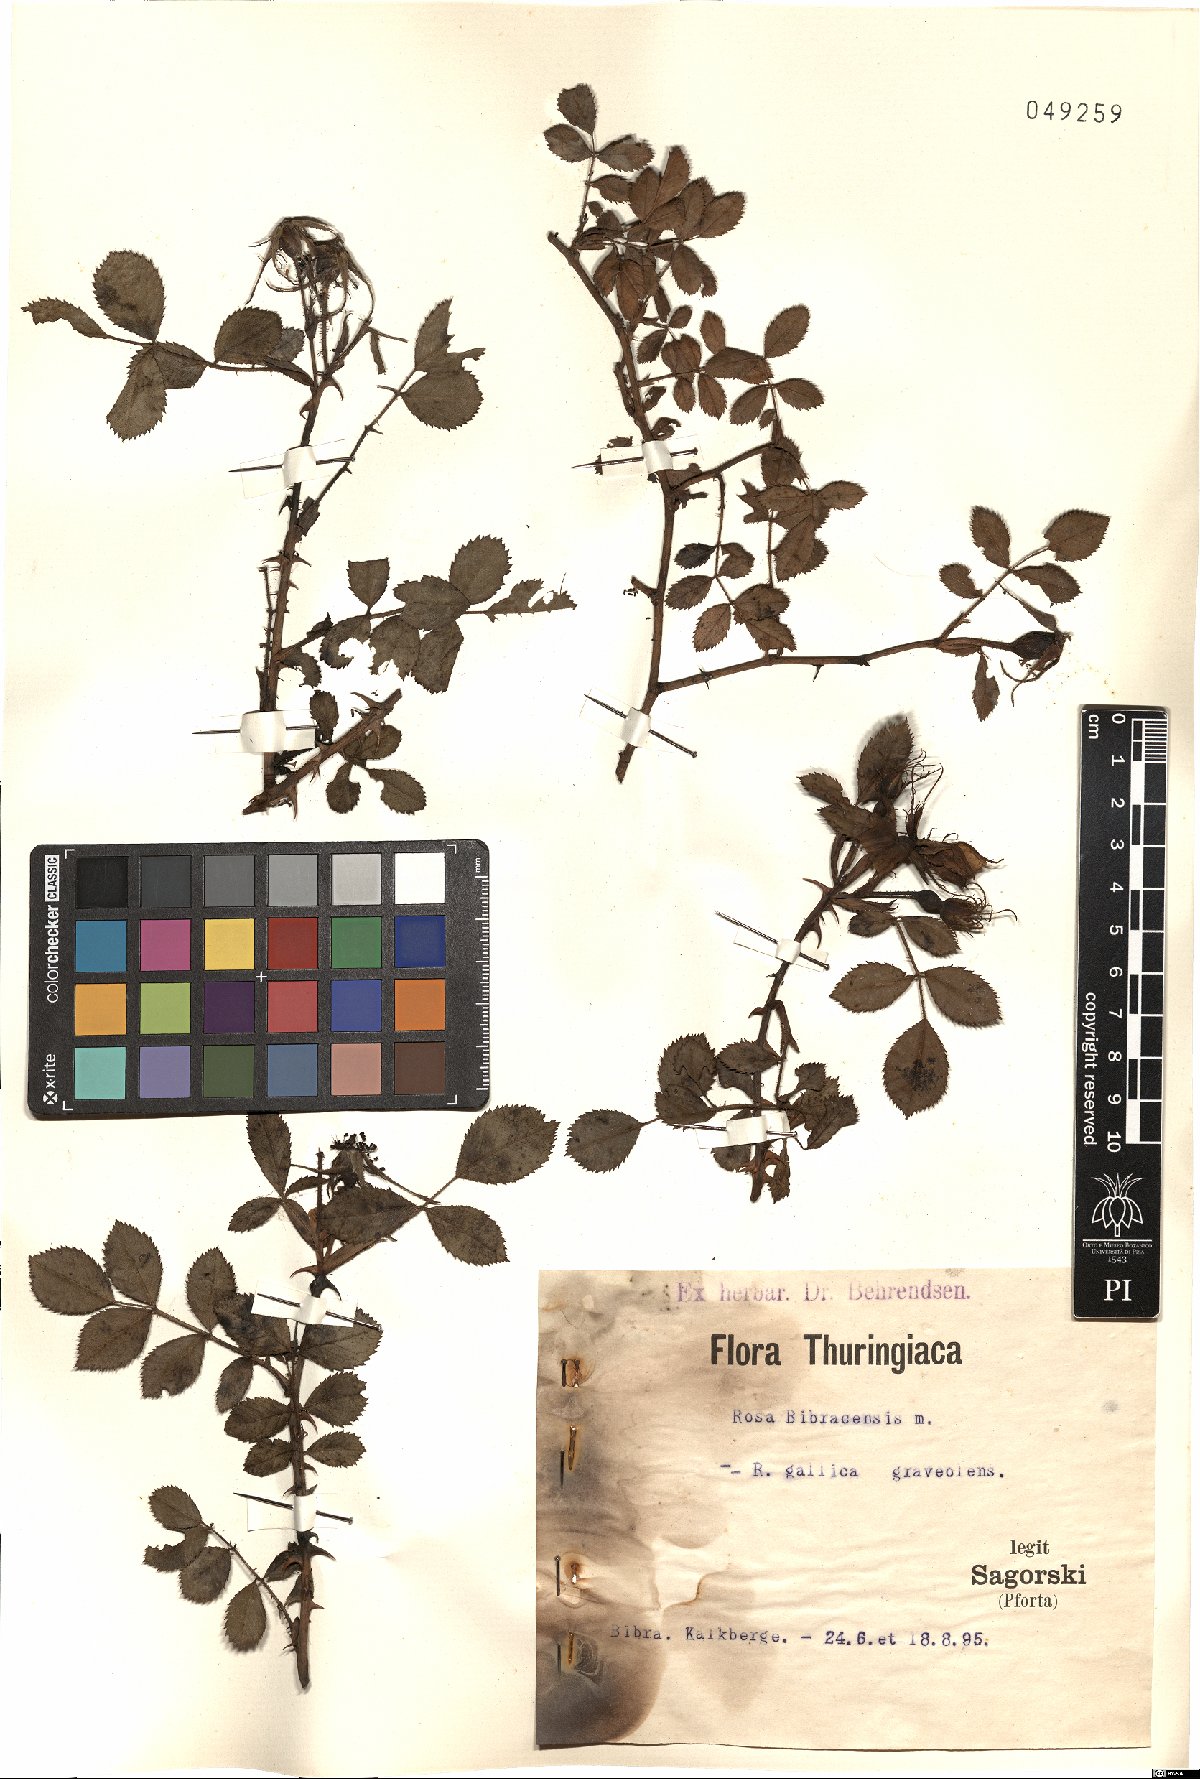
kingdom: Plantae
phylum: Tracheophyta
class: Magnoliopsida
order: Rosales
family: Rosaceae
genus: Rosa
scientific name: Rosa bibracensis
